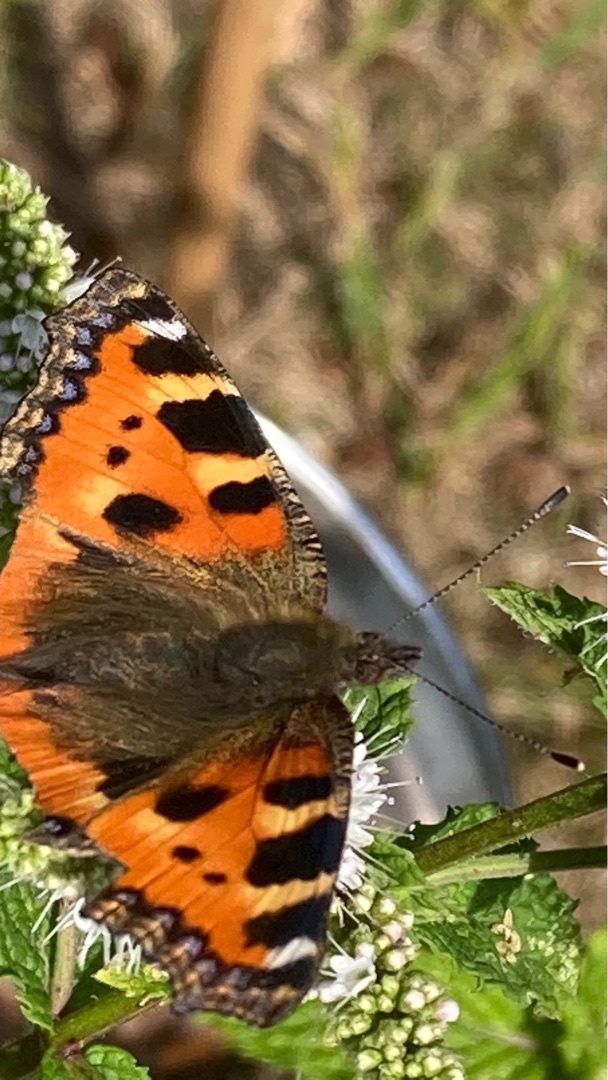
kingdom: Animalia
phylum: Arthropoda
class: Insecta
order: Lepidoptera
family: Nymphalidae
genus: Aglais
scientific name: Aglais urticae
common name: Nældens takvinge
